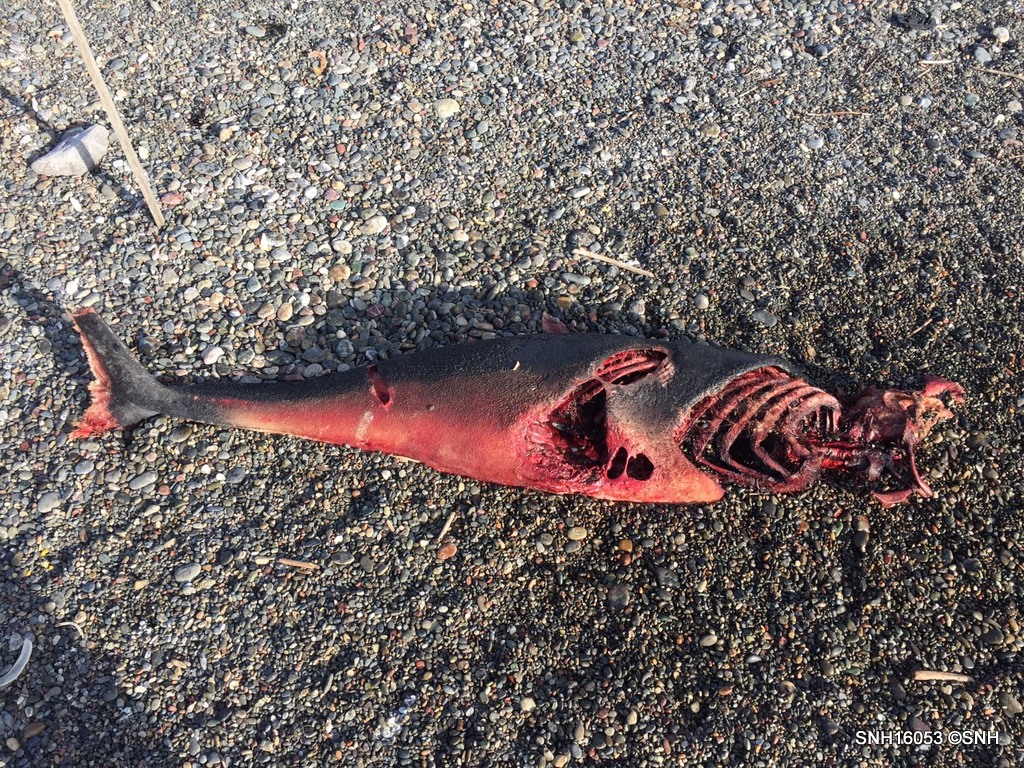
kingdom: Animalia
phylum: Chordata
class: Mammalia
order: Cetacea
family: Phocoenidae
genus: Phocoena
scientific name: Phocoena phocoena
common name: Harbour porpoise
